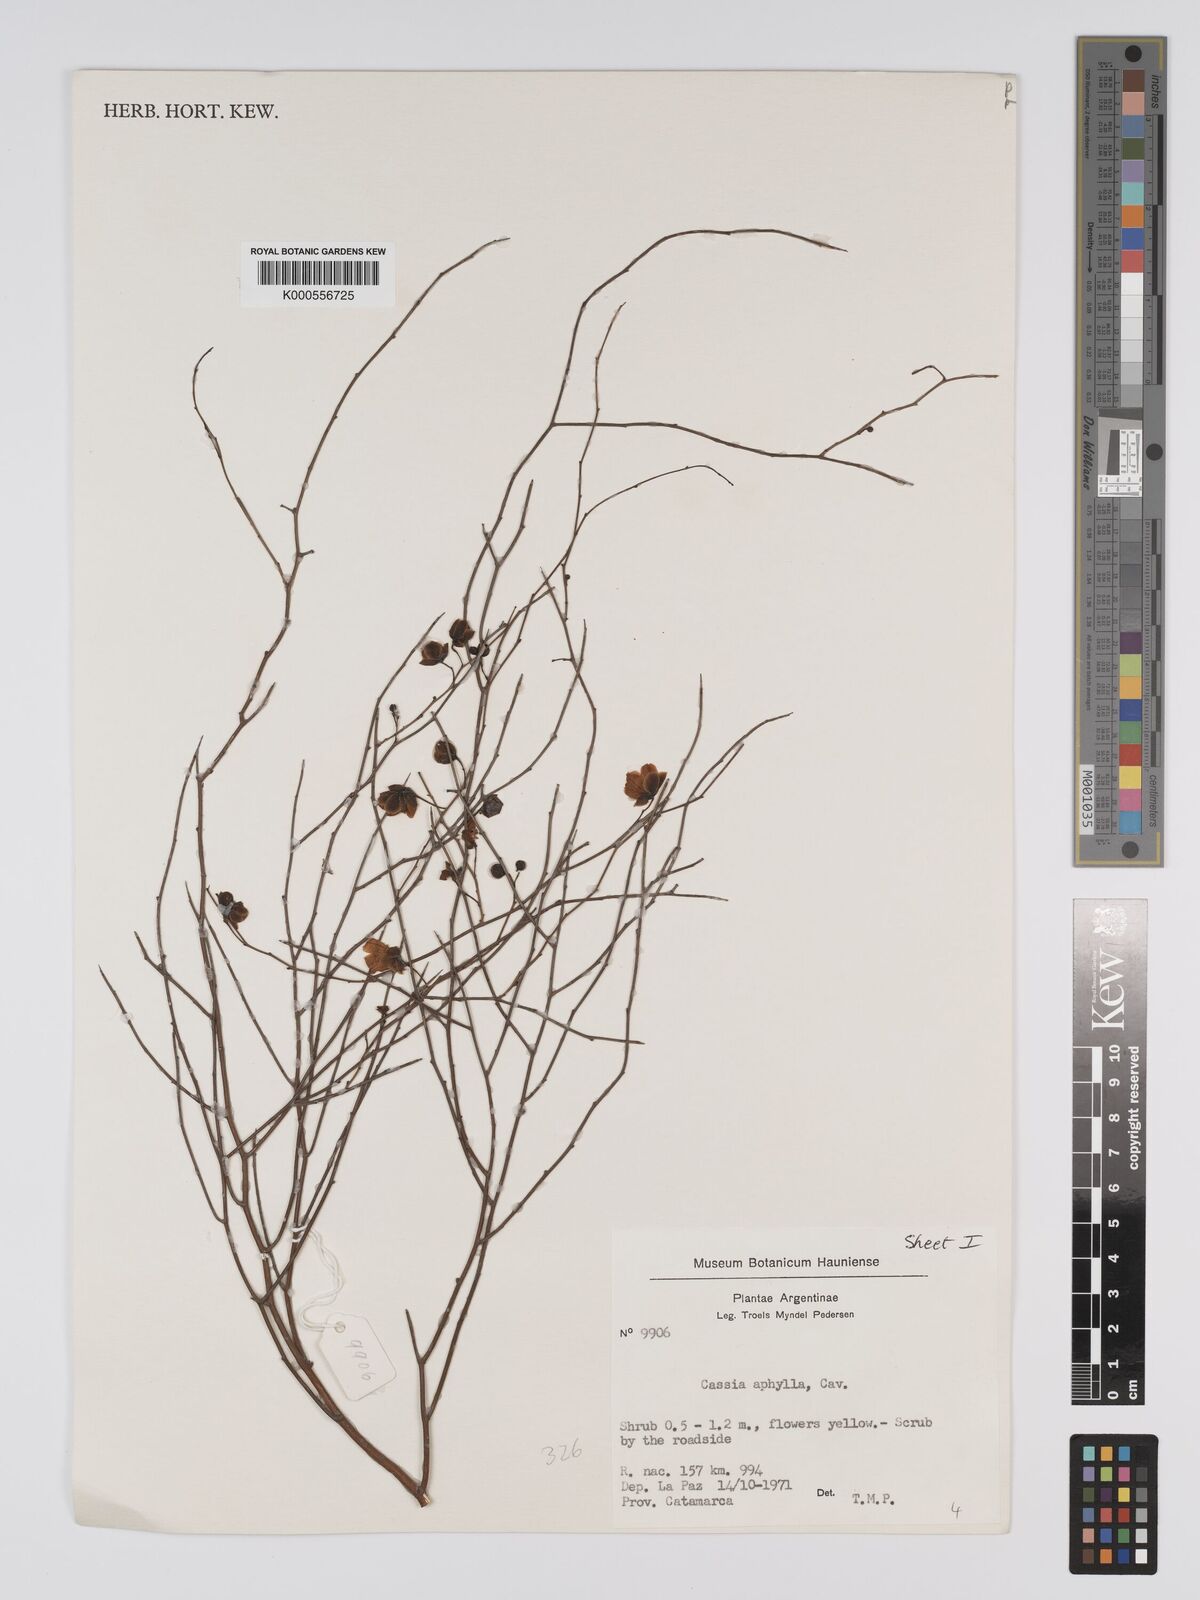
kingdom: Plantae
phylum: Tracheophyta
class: Magnoliopsida
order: Fabales
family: Fabaceae
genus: Senna
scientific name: Senna aphylla
